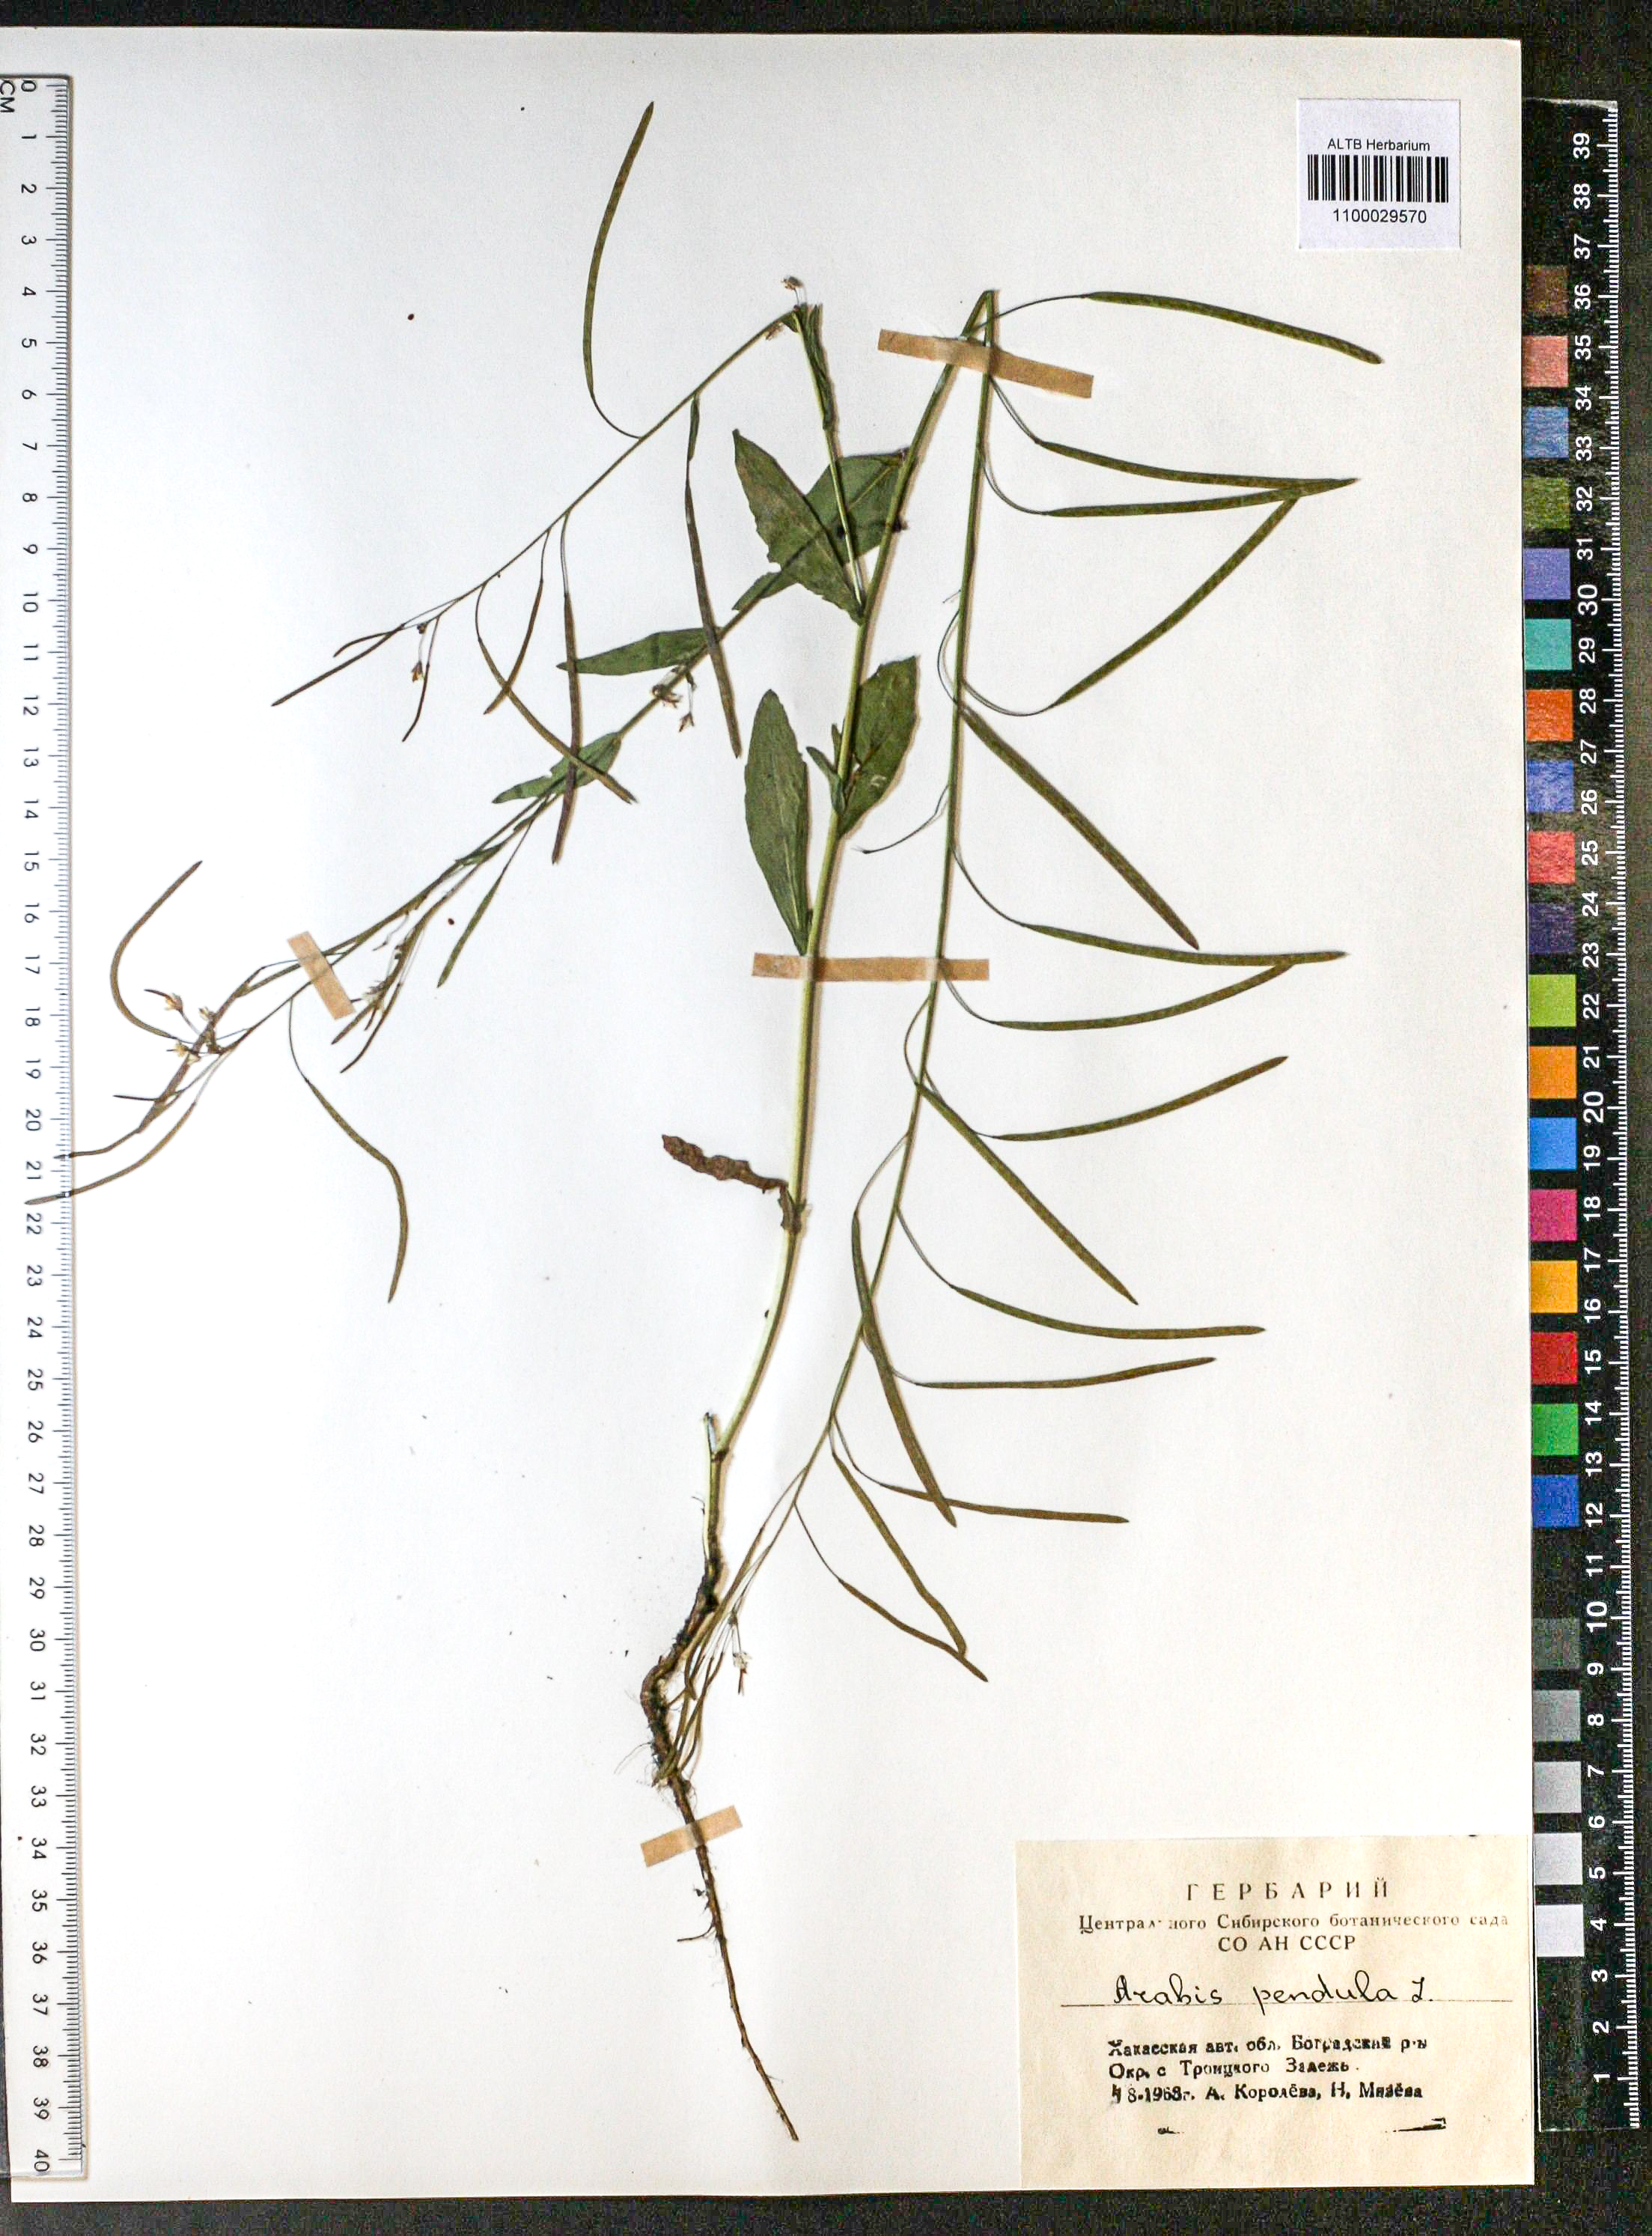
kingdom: Plantae
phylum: Tracheophyta
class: Magnoliopsida
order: Brassicales
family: Brassicaceae
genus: Catolobus
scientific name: Catolobus pendulus
